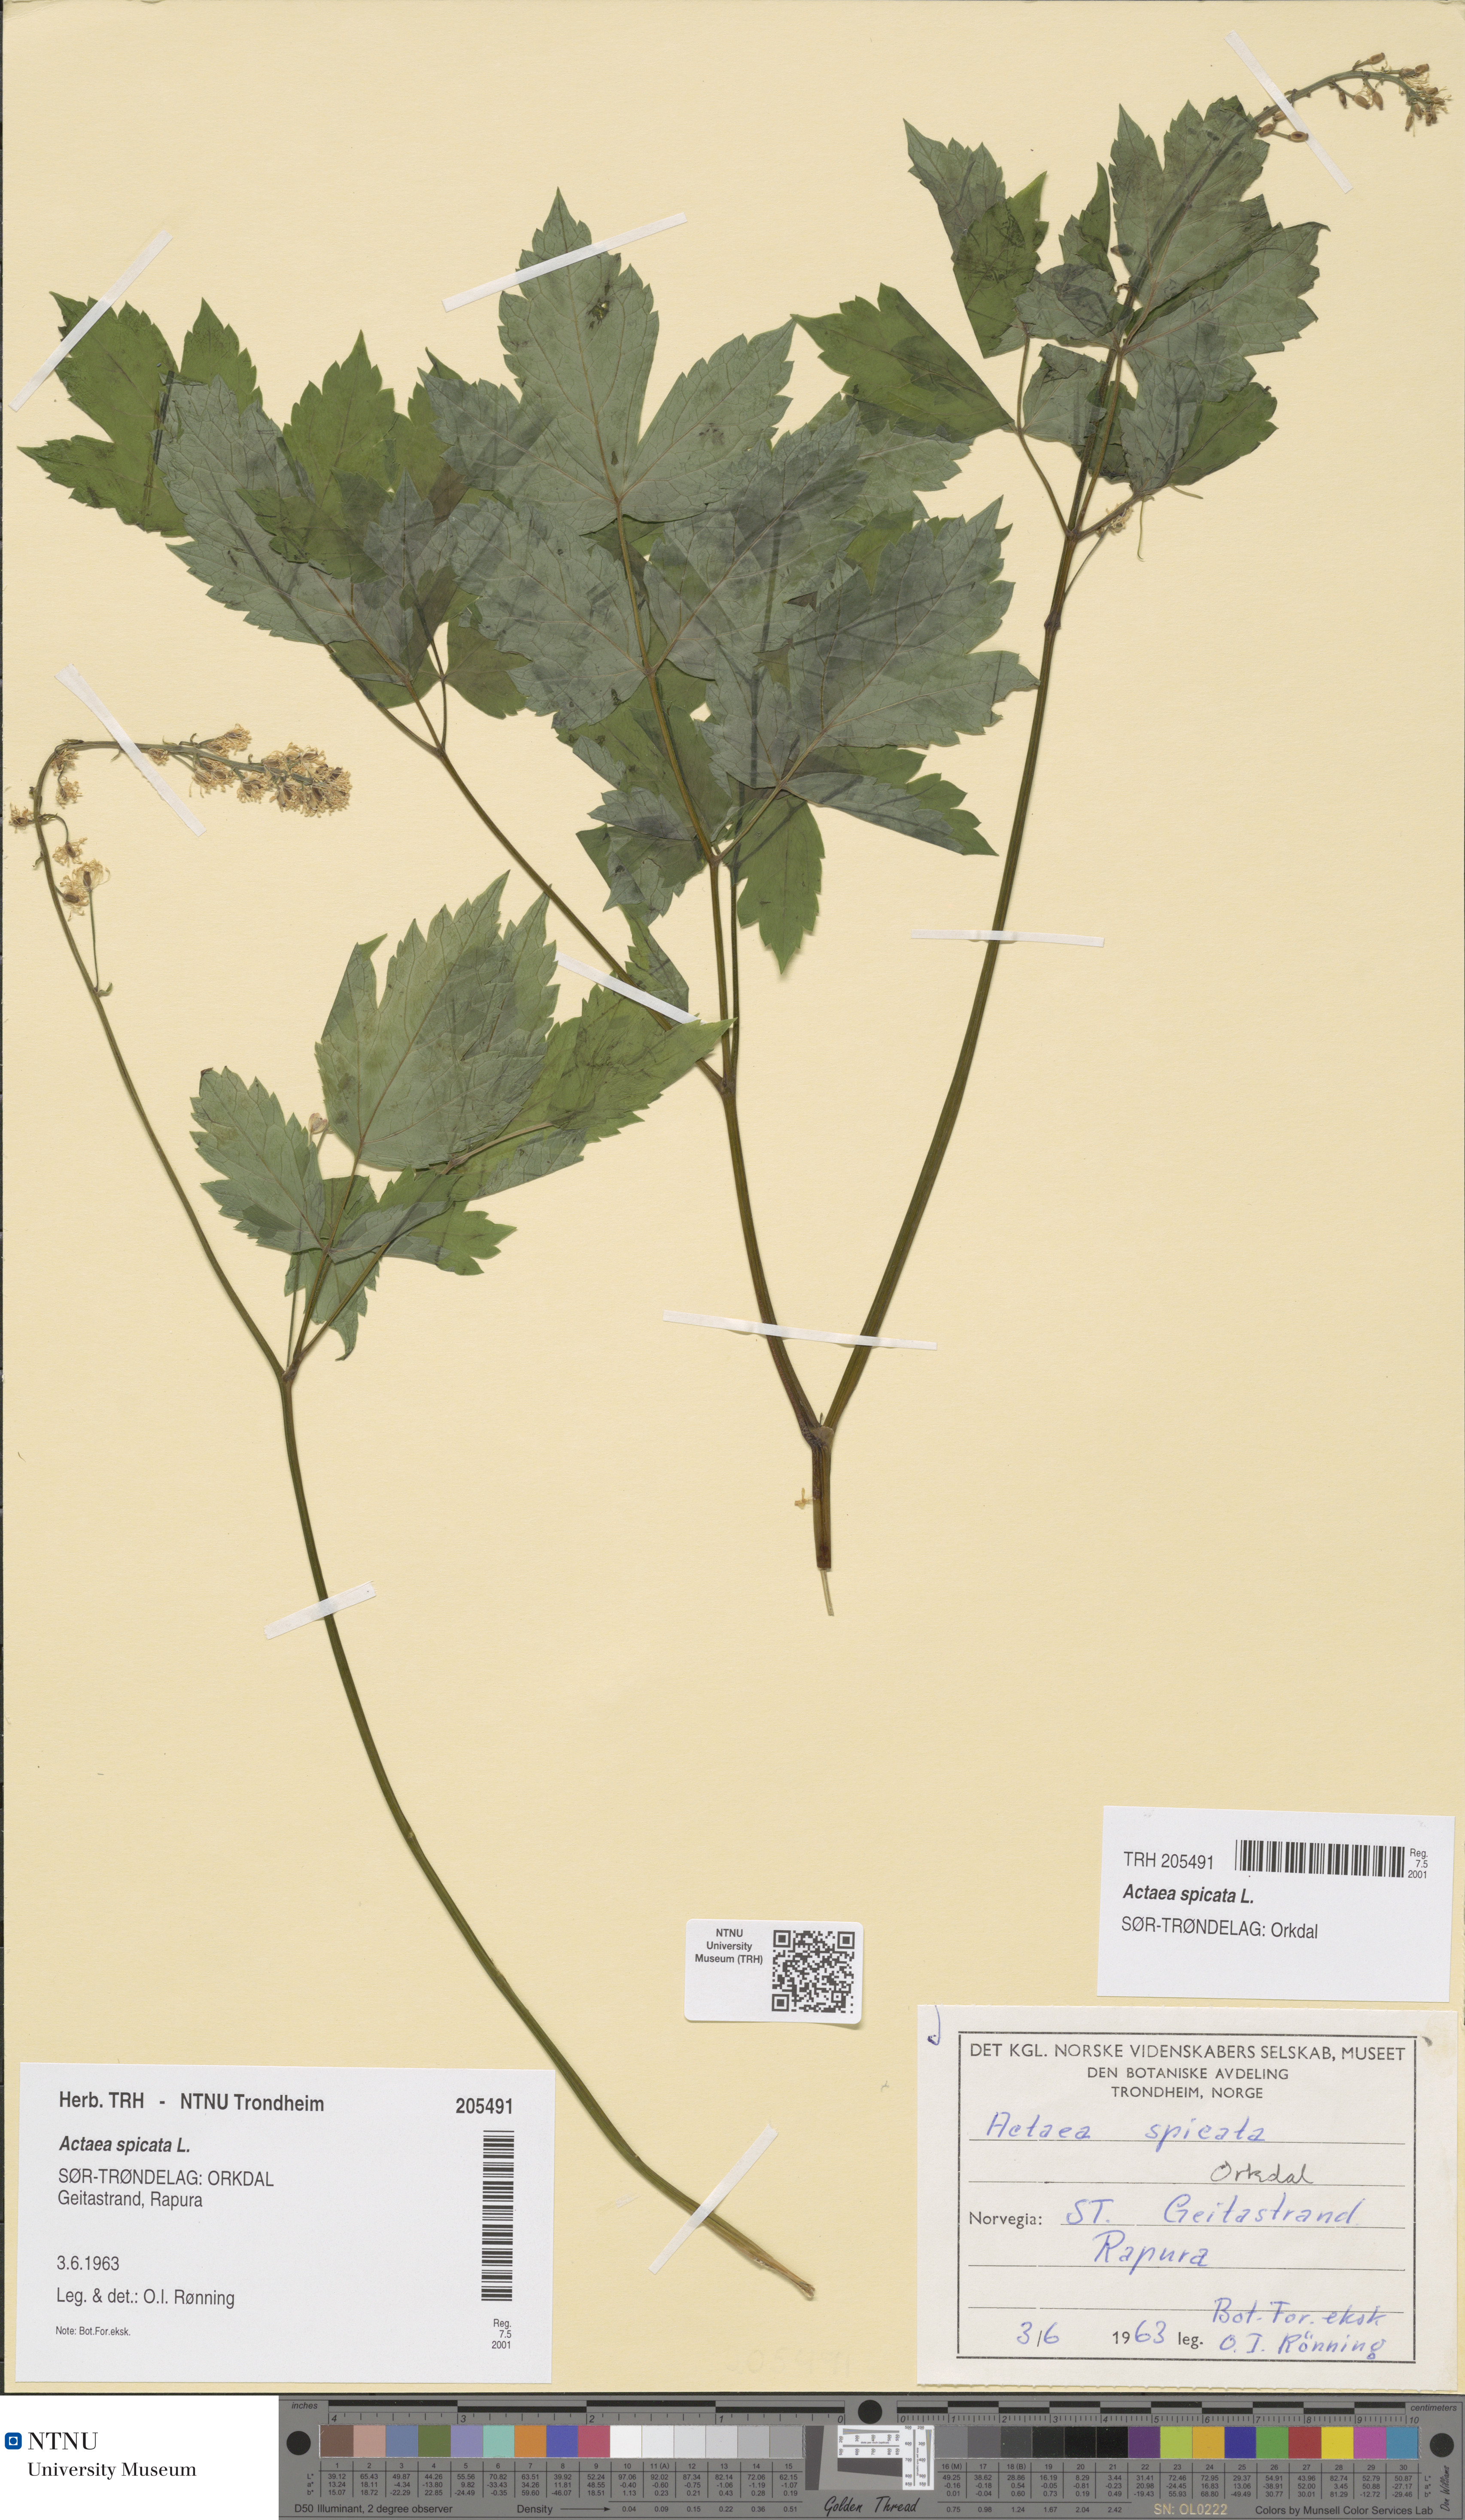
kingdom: Plantae
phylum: Tracheophyta
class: Magnoliopsida
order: Ranunculales
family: Ranunculaceae
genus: Actaea
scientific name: Actaea spicata
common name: Baneberry
